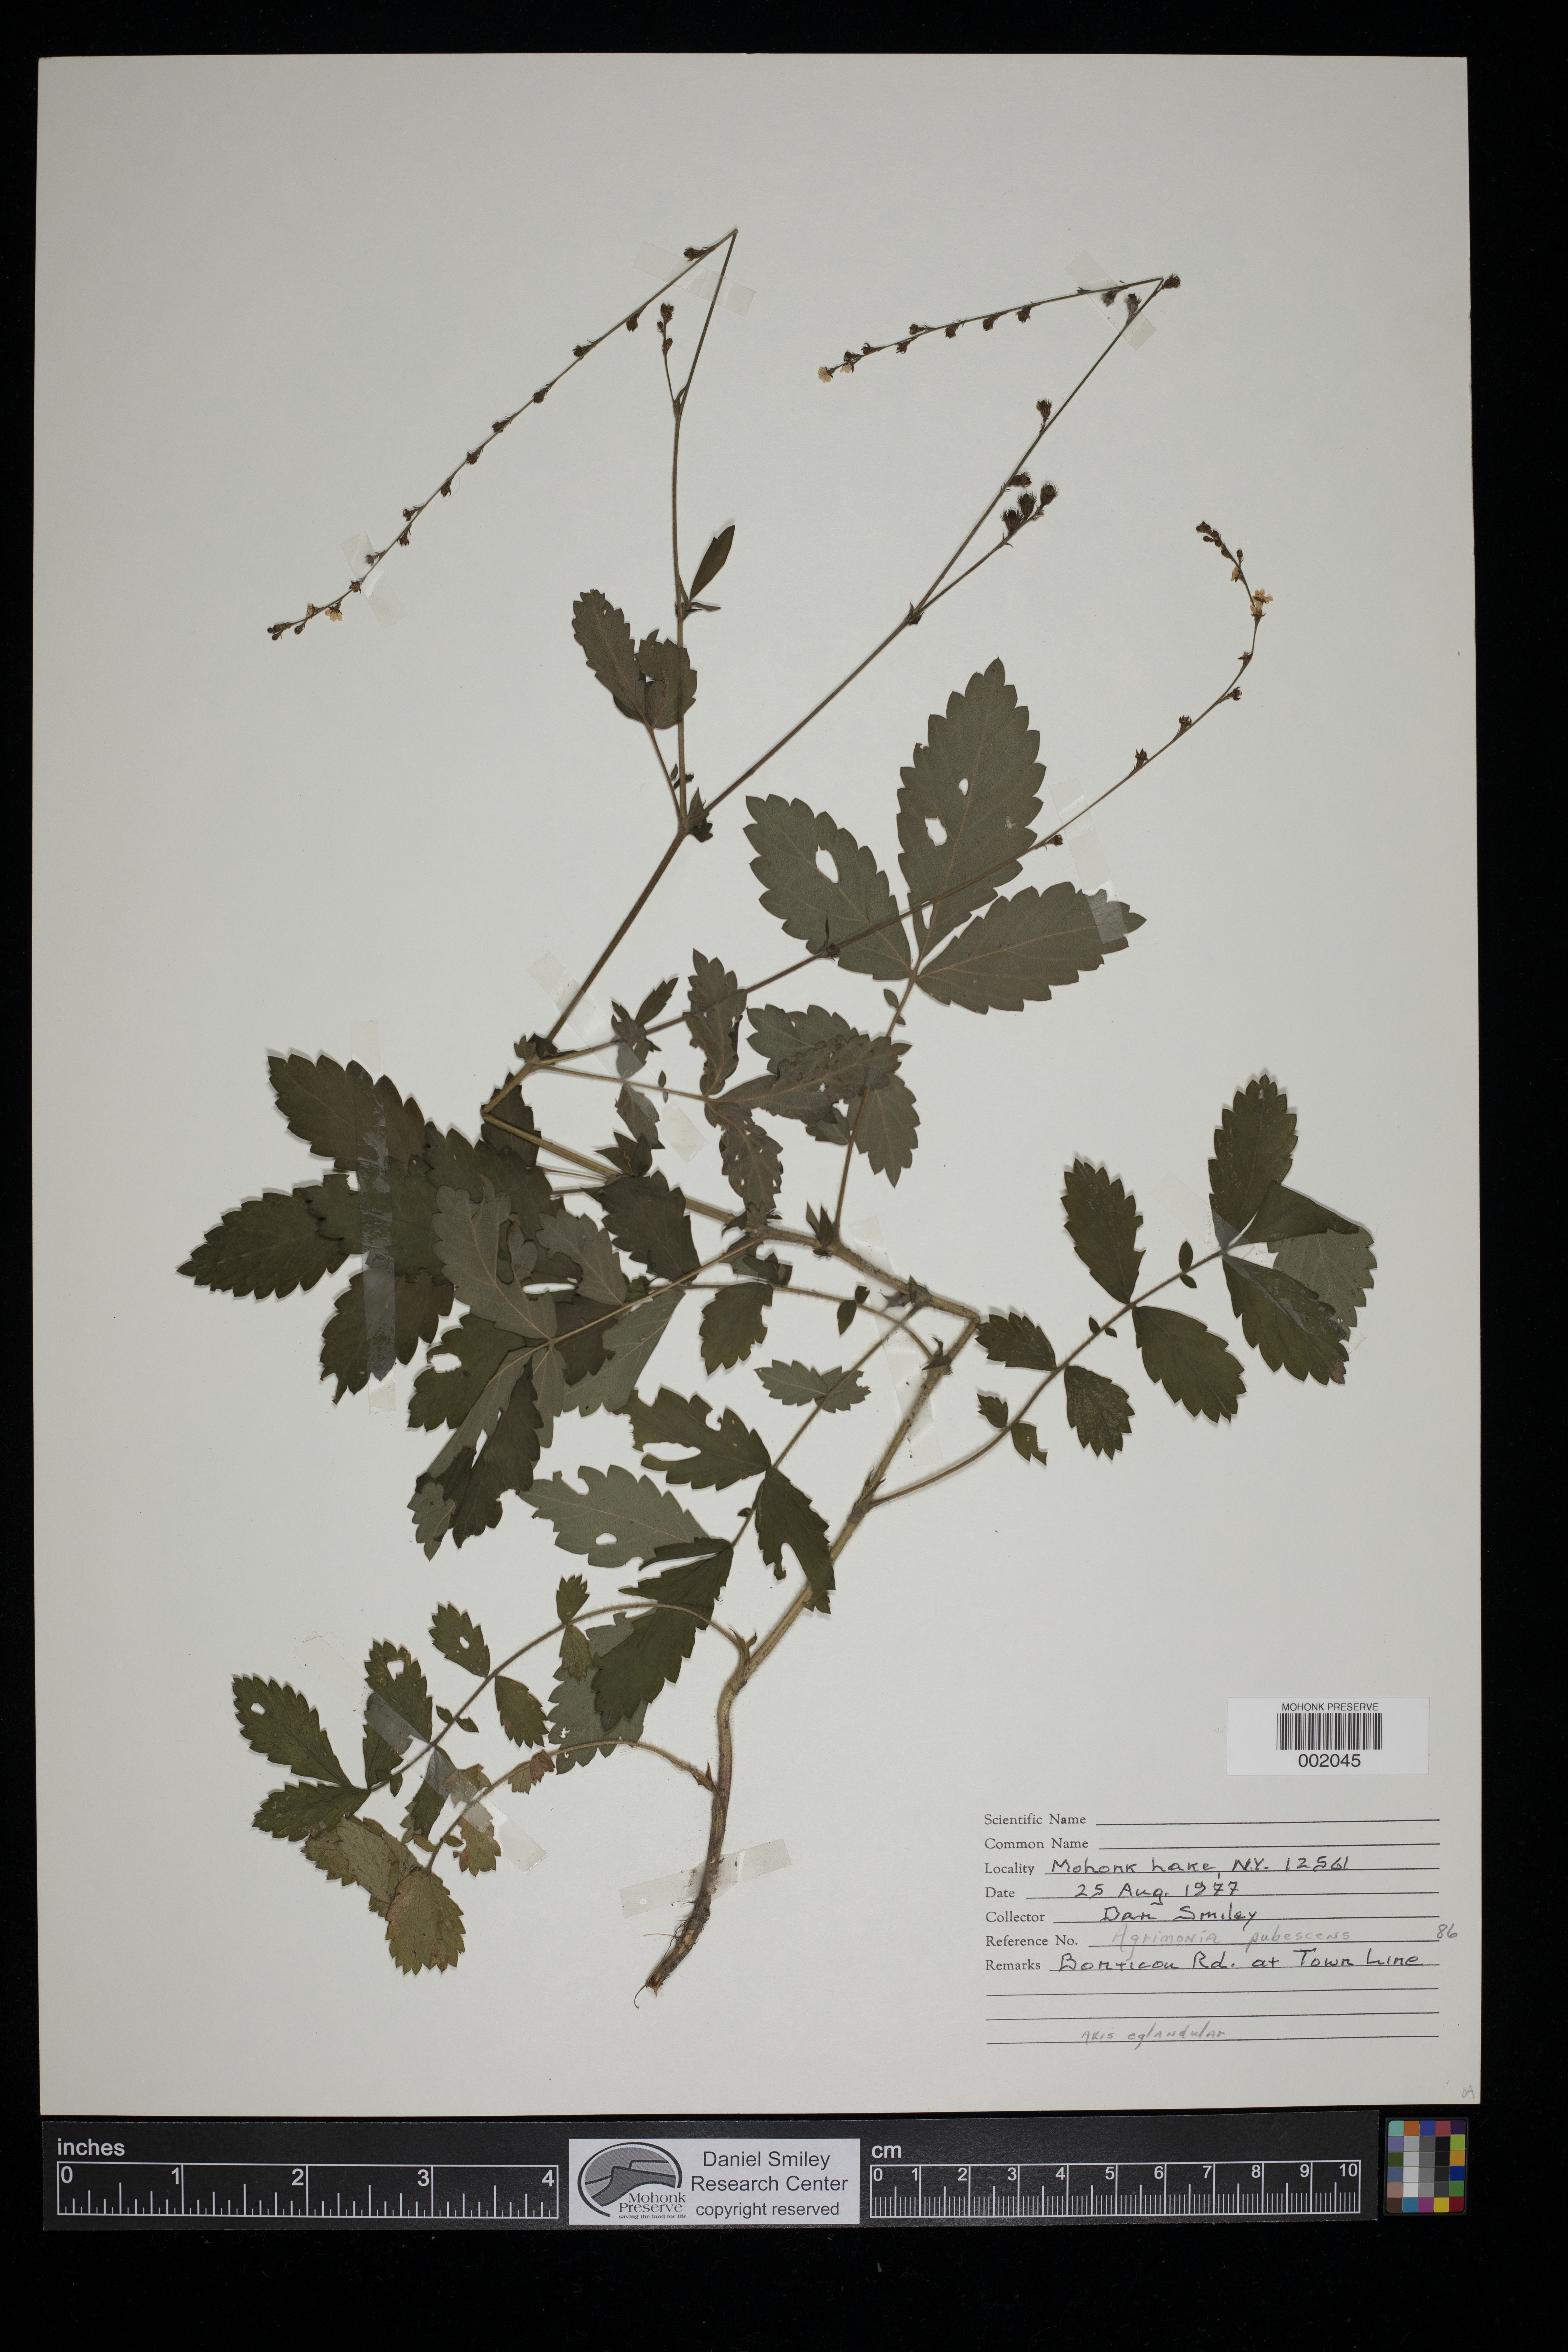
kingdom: Plantae
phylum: Tracheophyta
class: Magnoliopsida
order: Rosales
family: Rosaceae
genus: Agrimonia
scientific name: Agrimonia pubescens
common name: Downy agrimony
